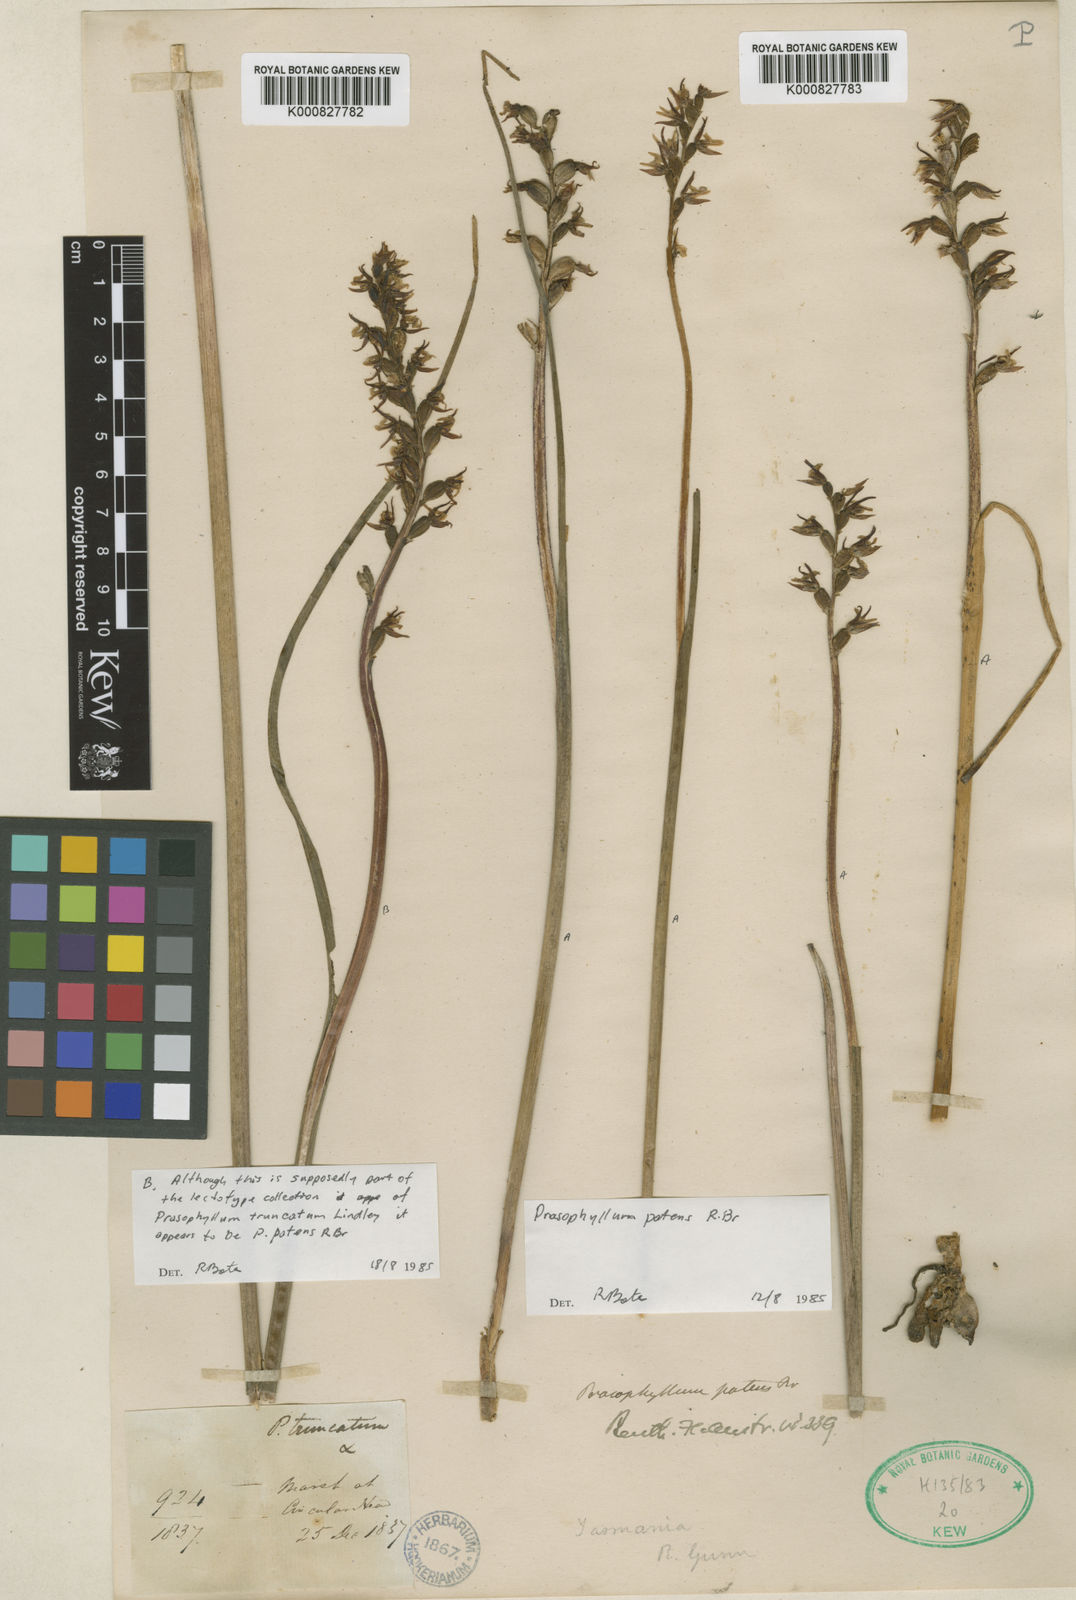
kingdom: Plantae
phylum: Tracheophyta
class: Liliopsida
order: Asparagales
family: Orchidaceae
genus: Prasophyllum
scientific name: Prasophyllum truncatum
